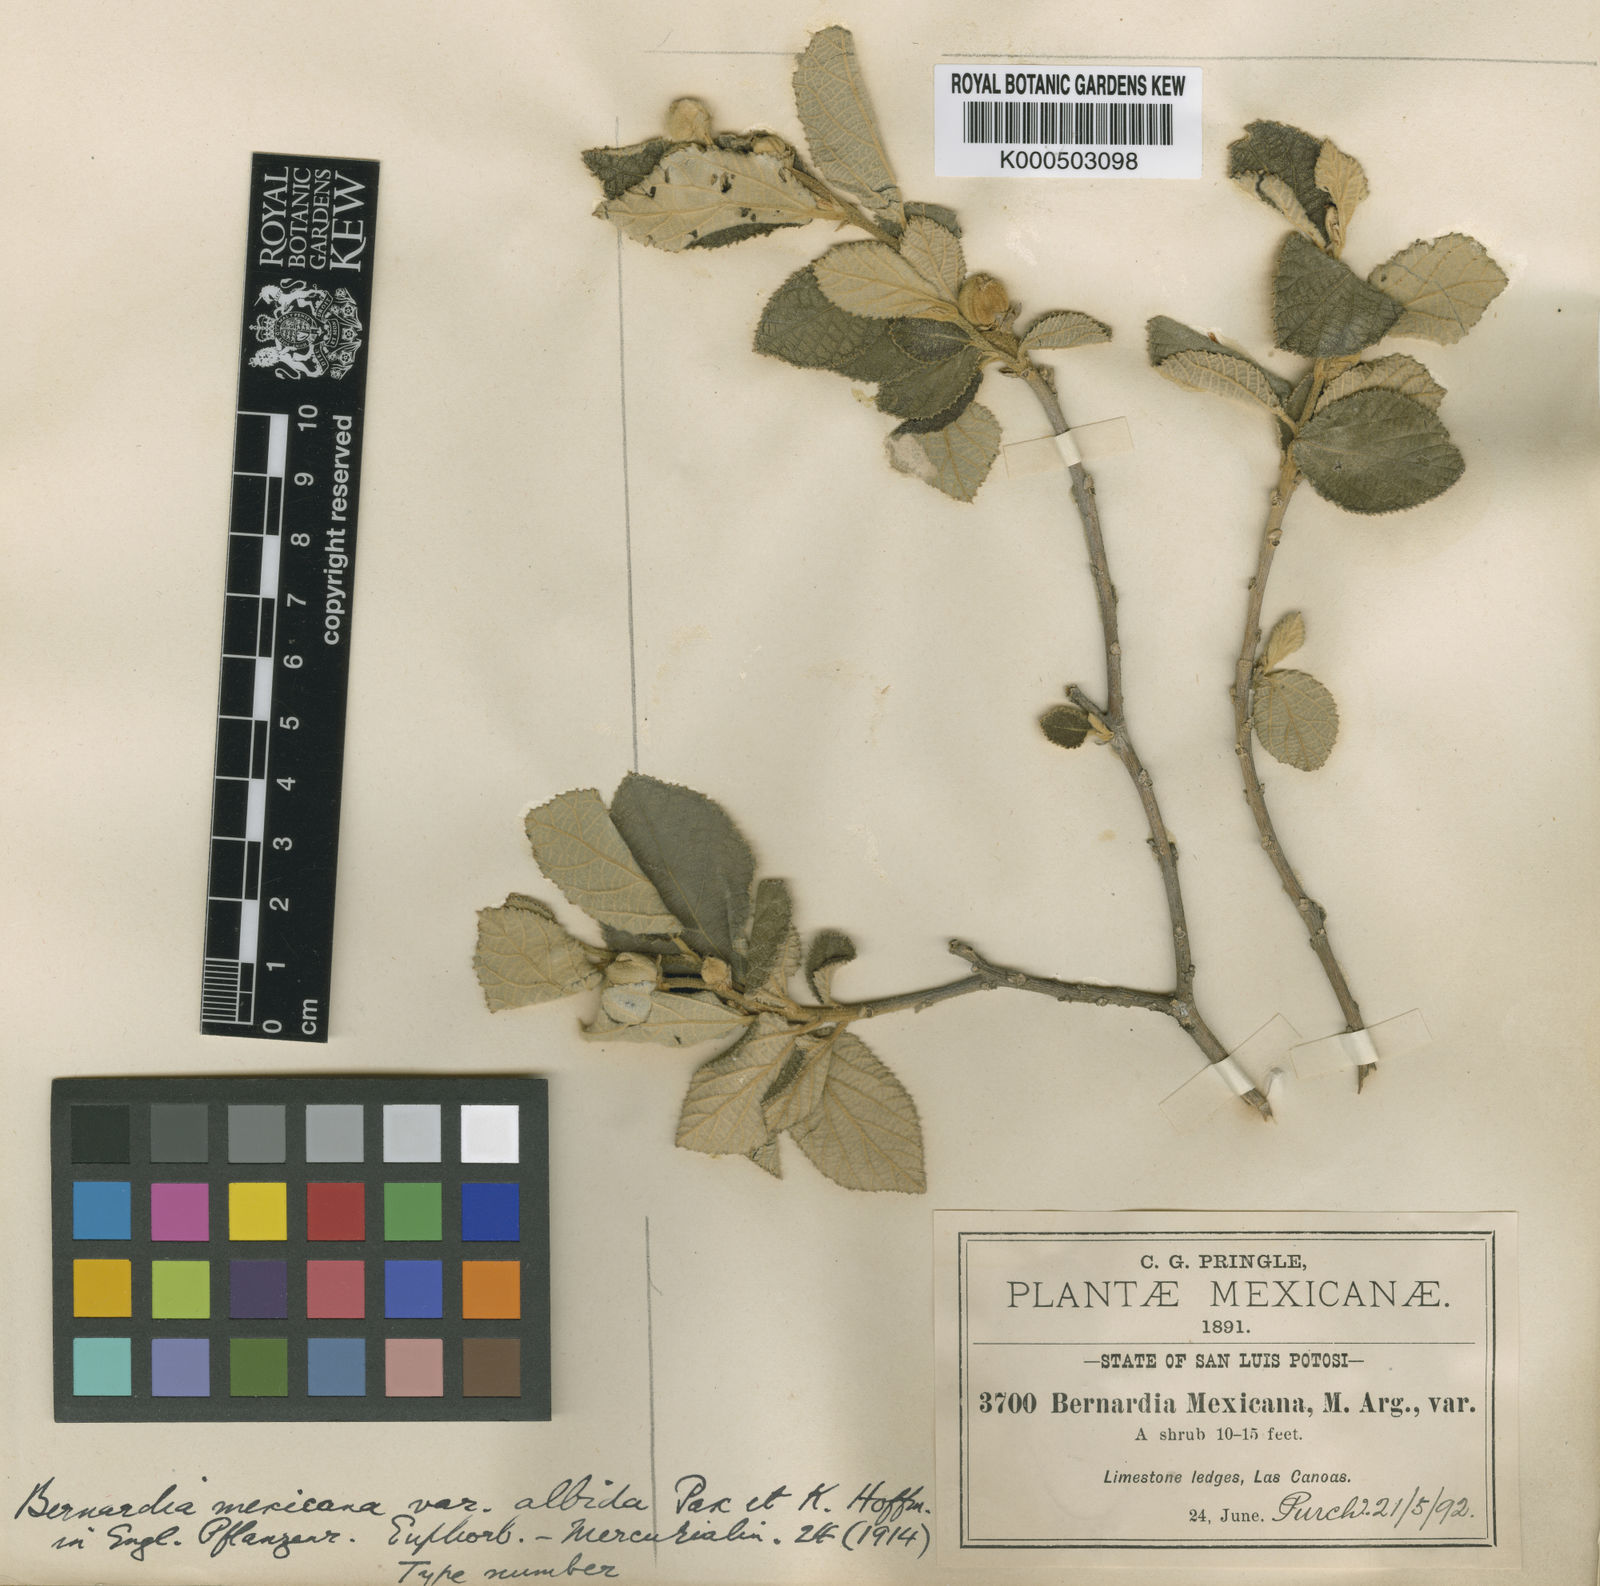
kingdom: Plantae
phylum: Tracheophyta
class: Magnoliopsida
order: Malpighiales
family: Euphorbiaceae
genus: Bernardia
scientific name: Bernardia
